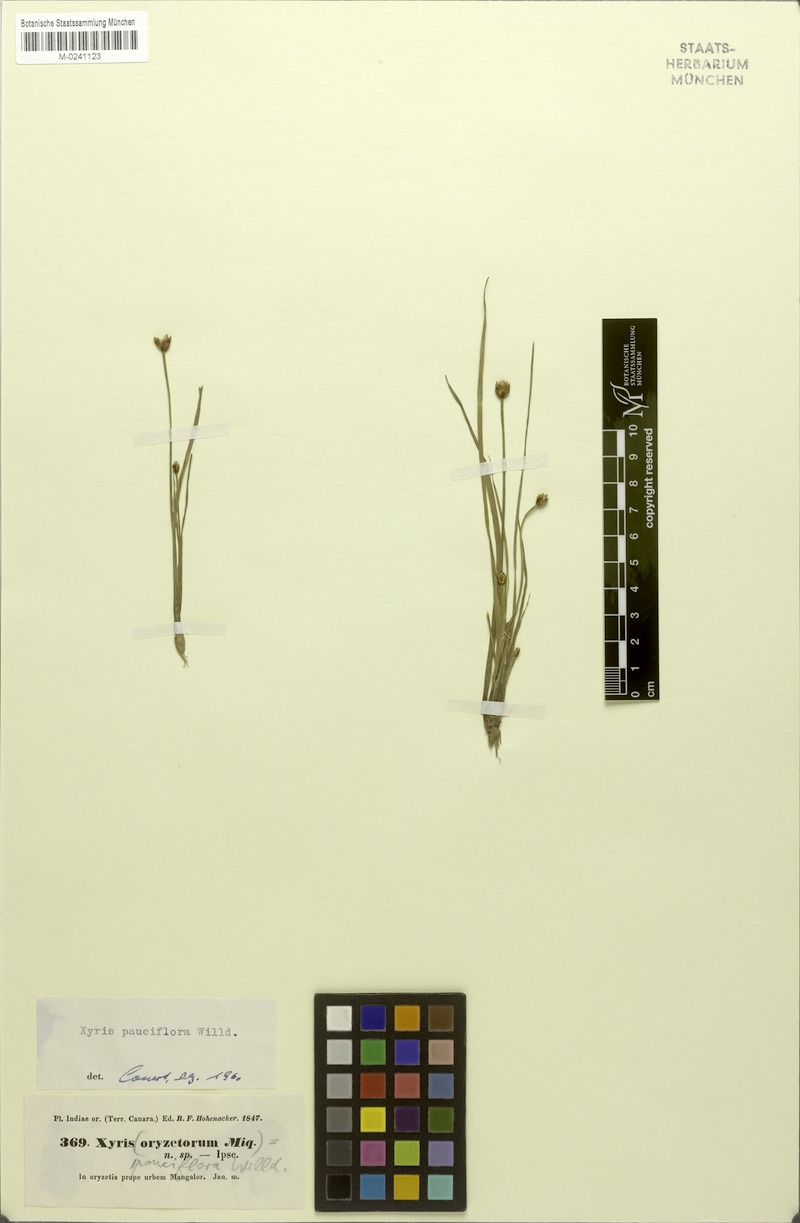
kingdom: Plantae
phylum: Tracheophyta
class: Liliopsida
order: Poales
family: Xyridaceae
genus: Xyris
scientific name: Xyris pauciflora
